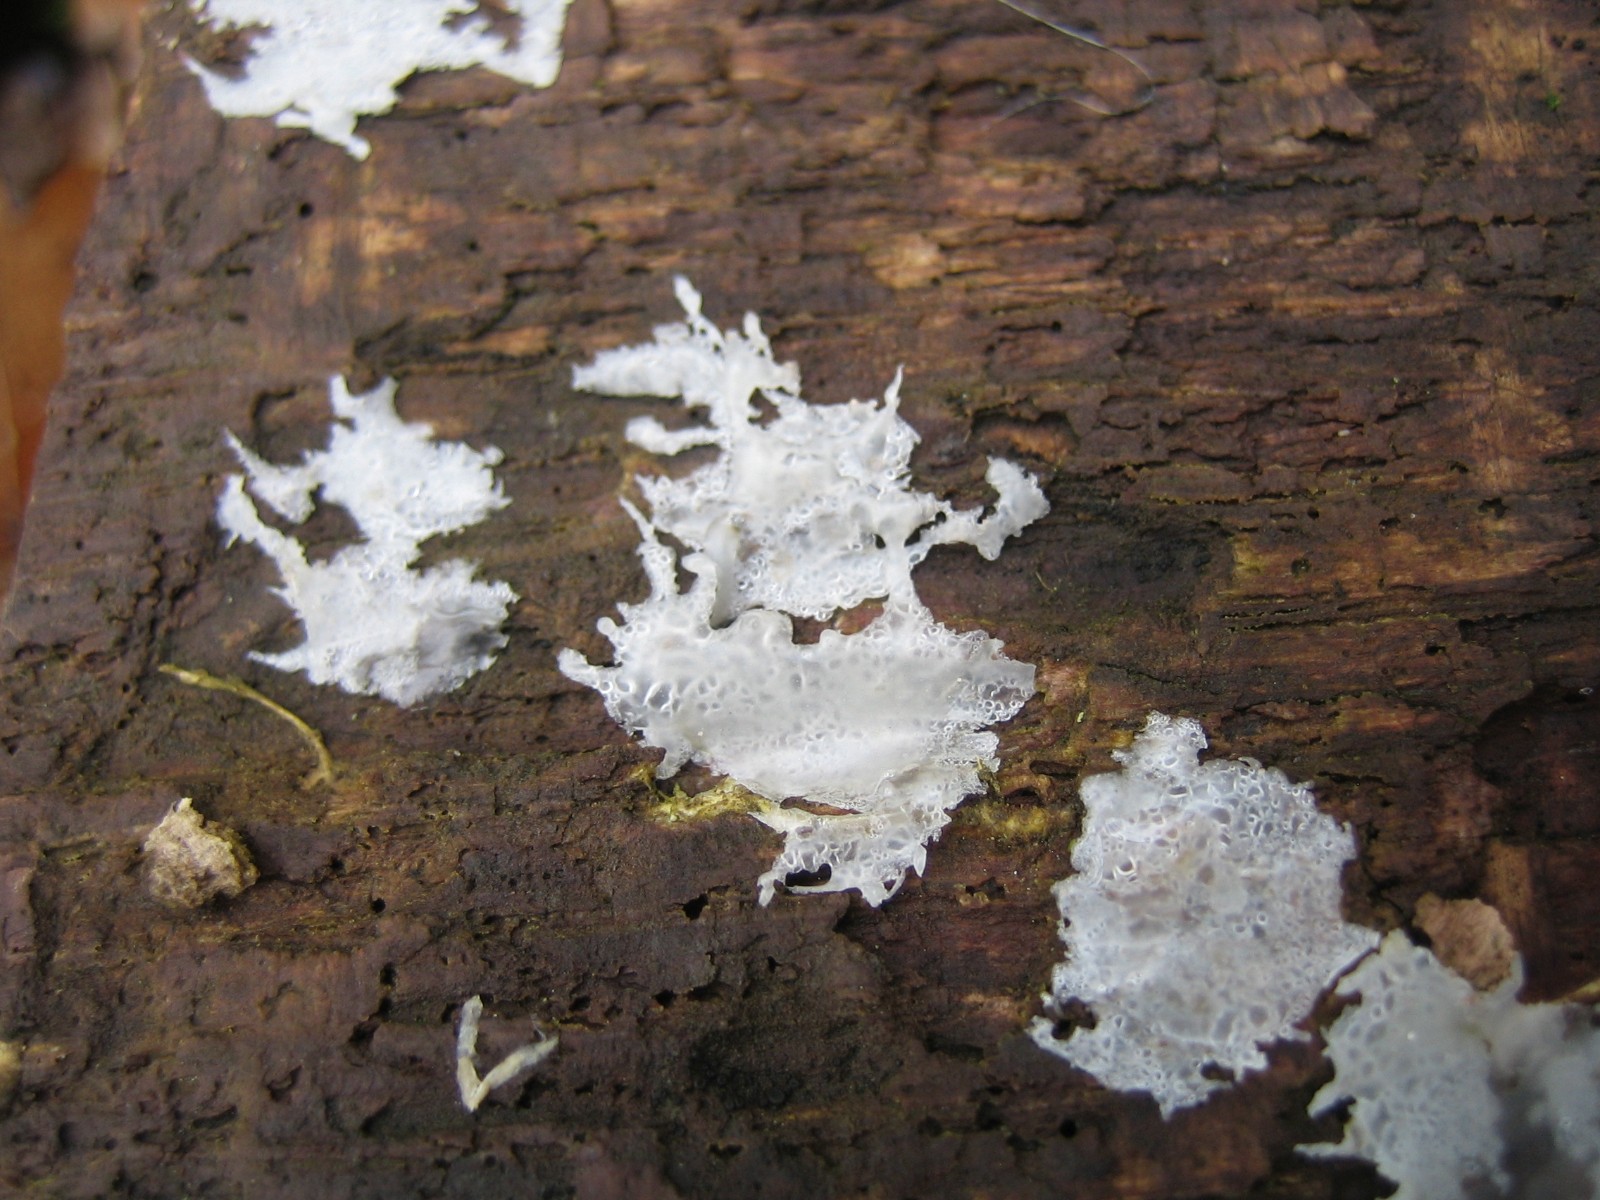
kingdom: Fungi
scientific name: Fungi
